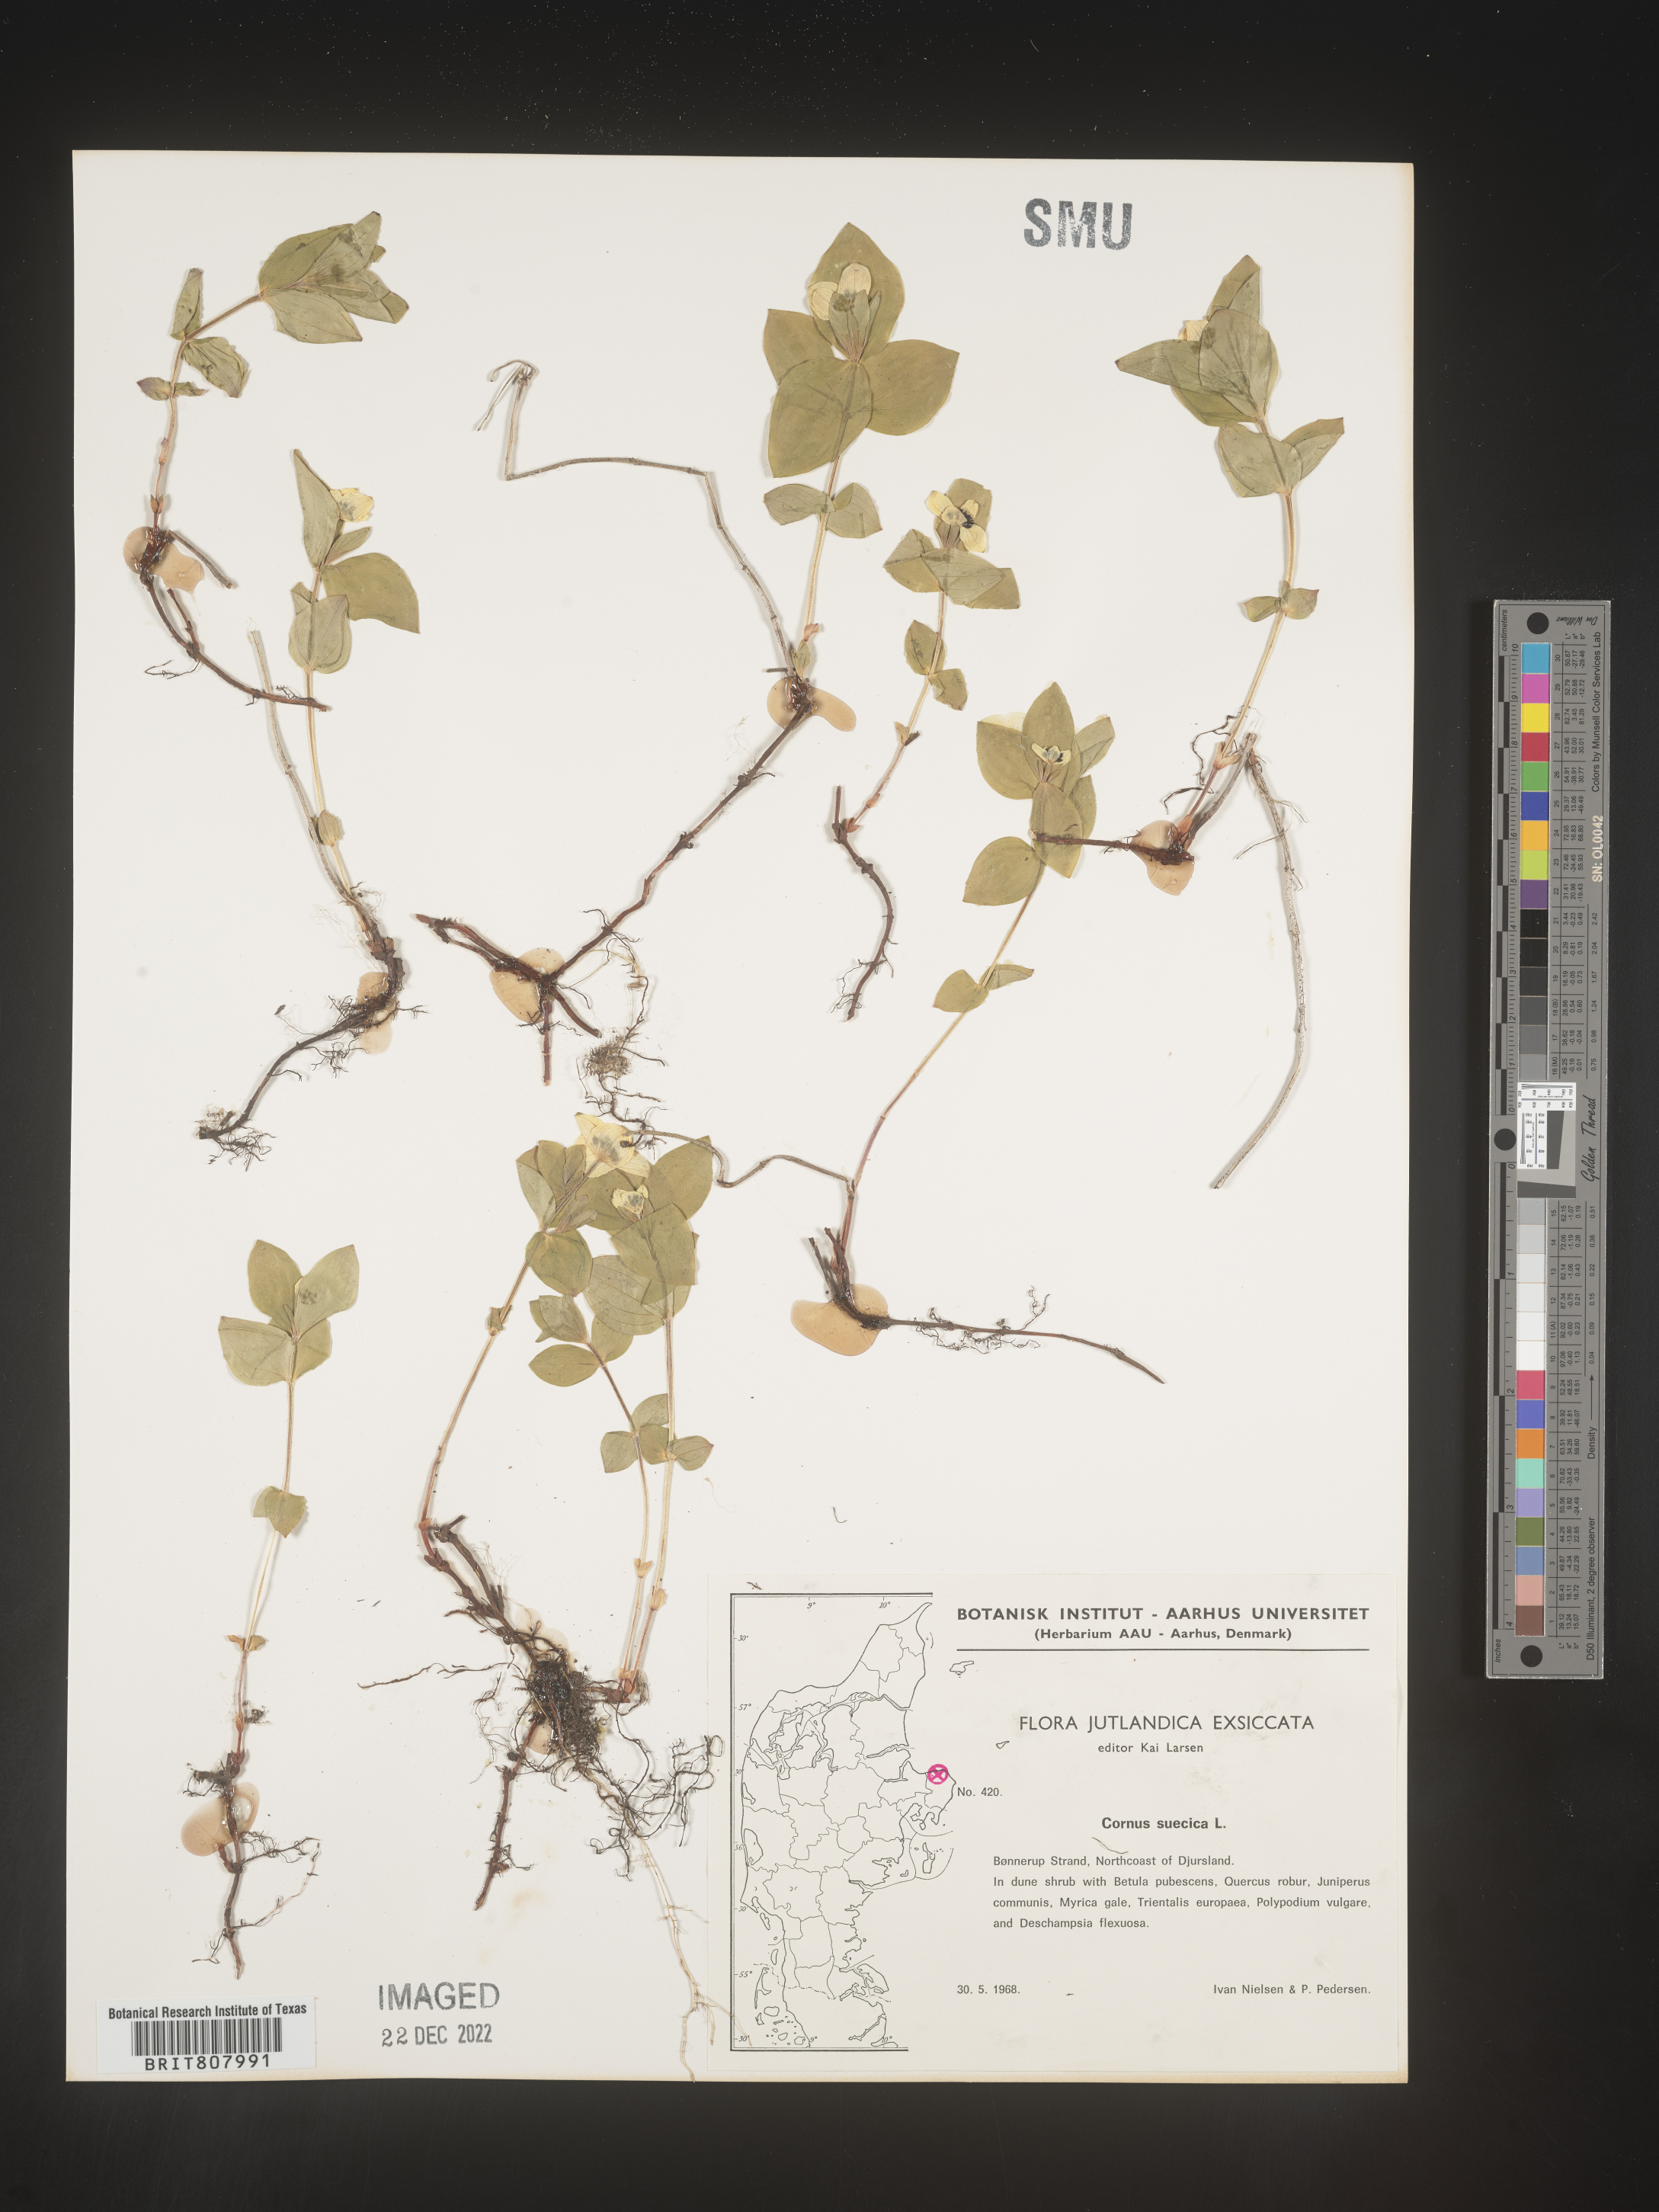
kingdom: Plantae
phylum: Tracheophyta
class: Magnoliopsida
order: Cornales
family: Cornaceae
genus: Cornus
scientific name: Cornus
